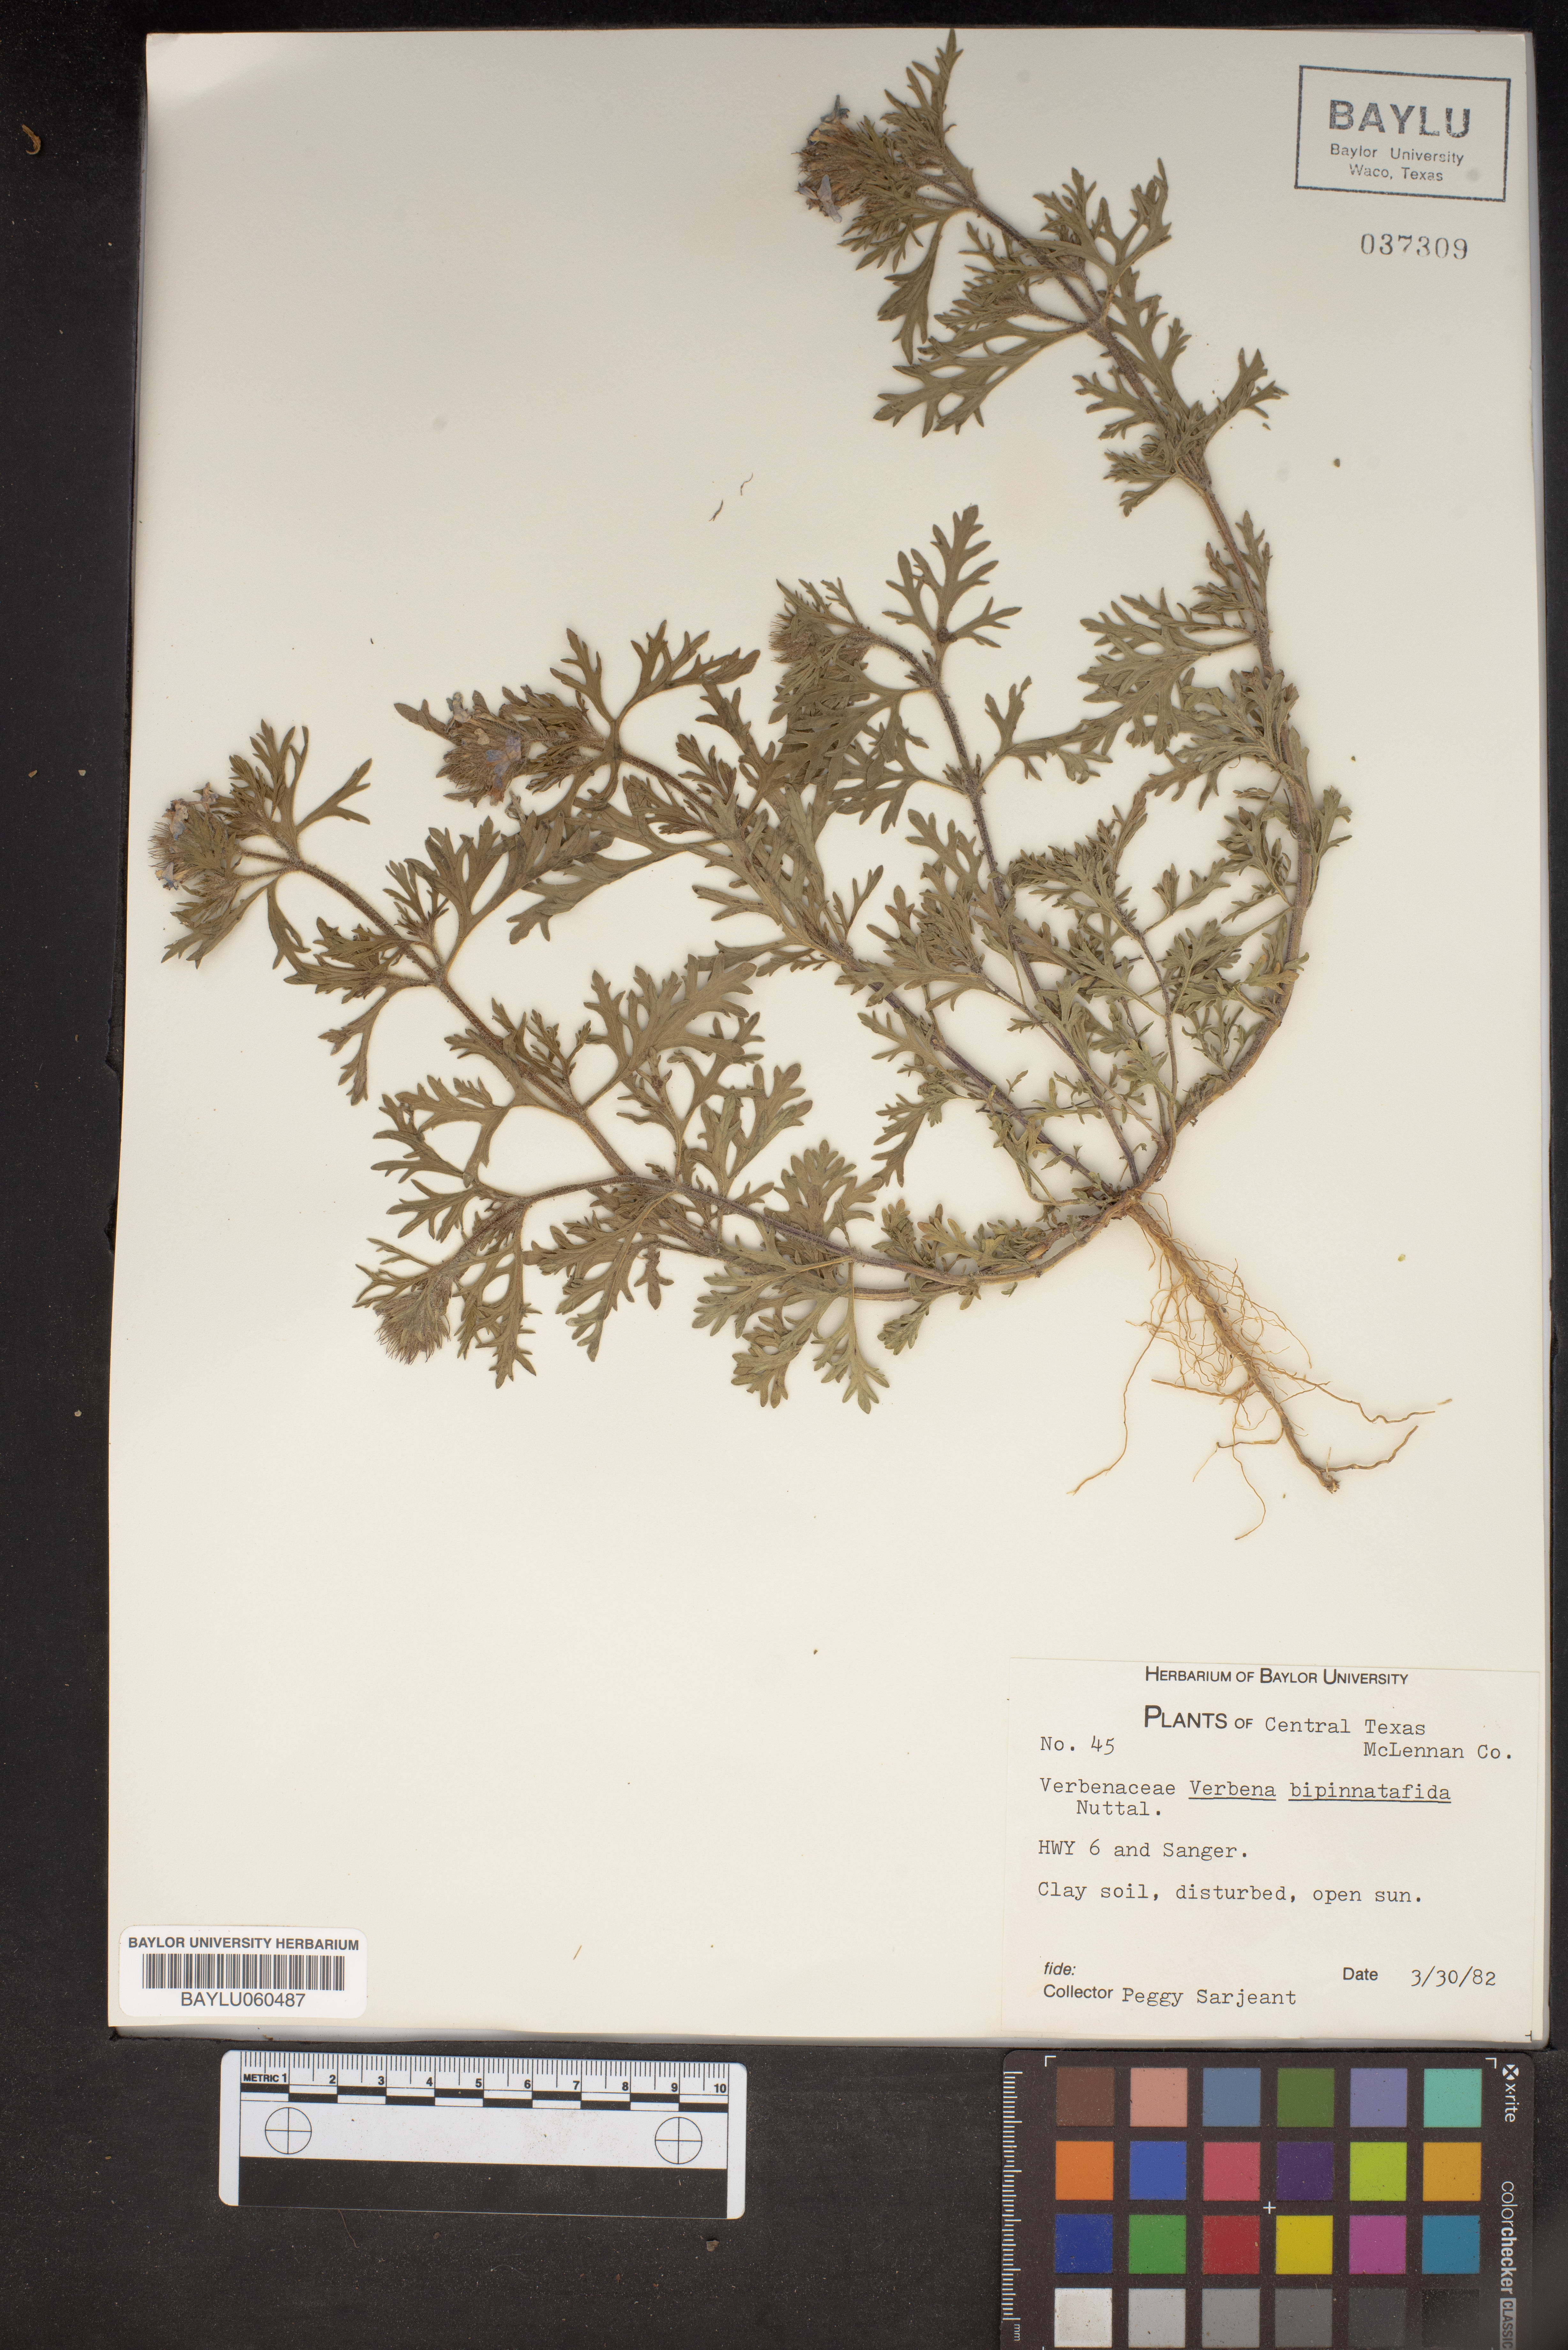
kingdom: Plantae
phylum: Tracheophyta
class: Magnoliopsida
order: Lamiales
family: Verbenaceae
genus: Verbena
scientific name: Verbena bipinnatifida
